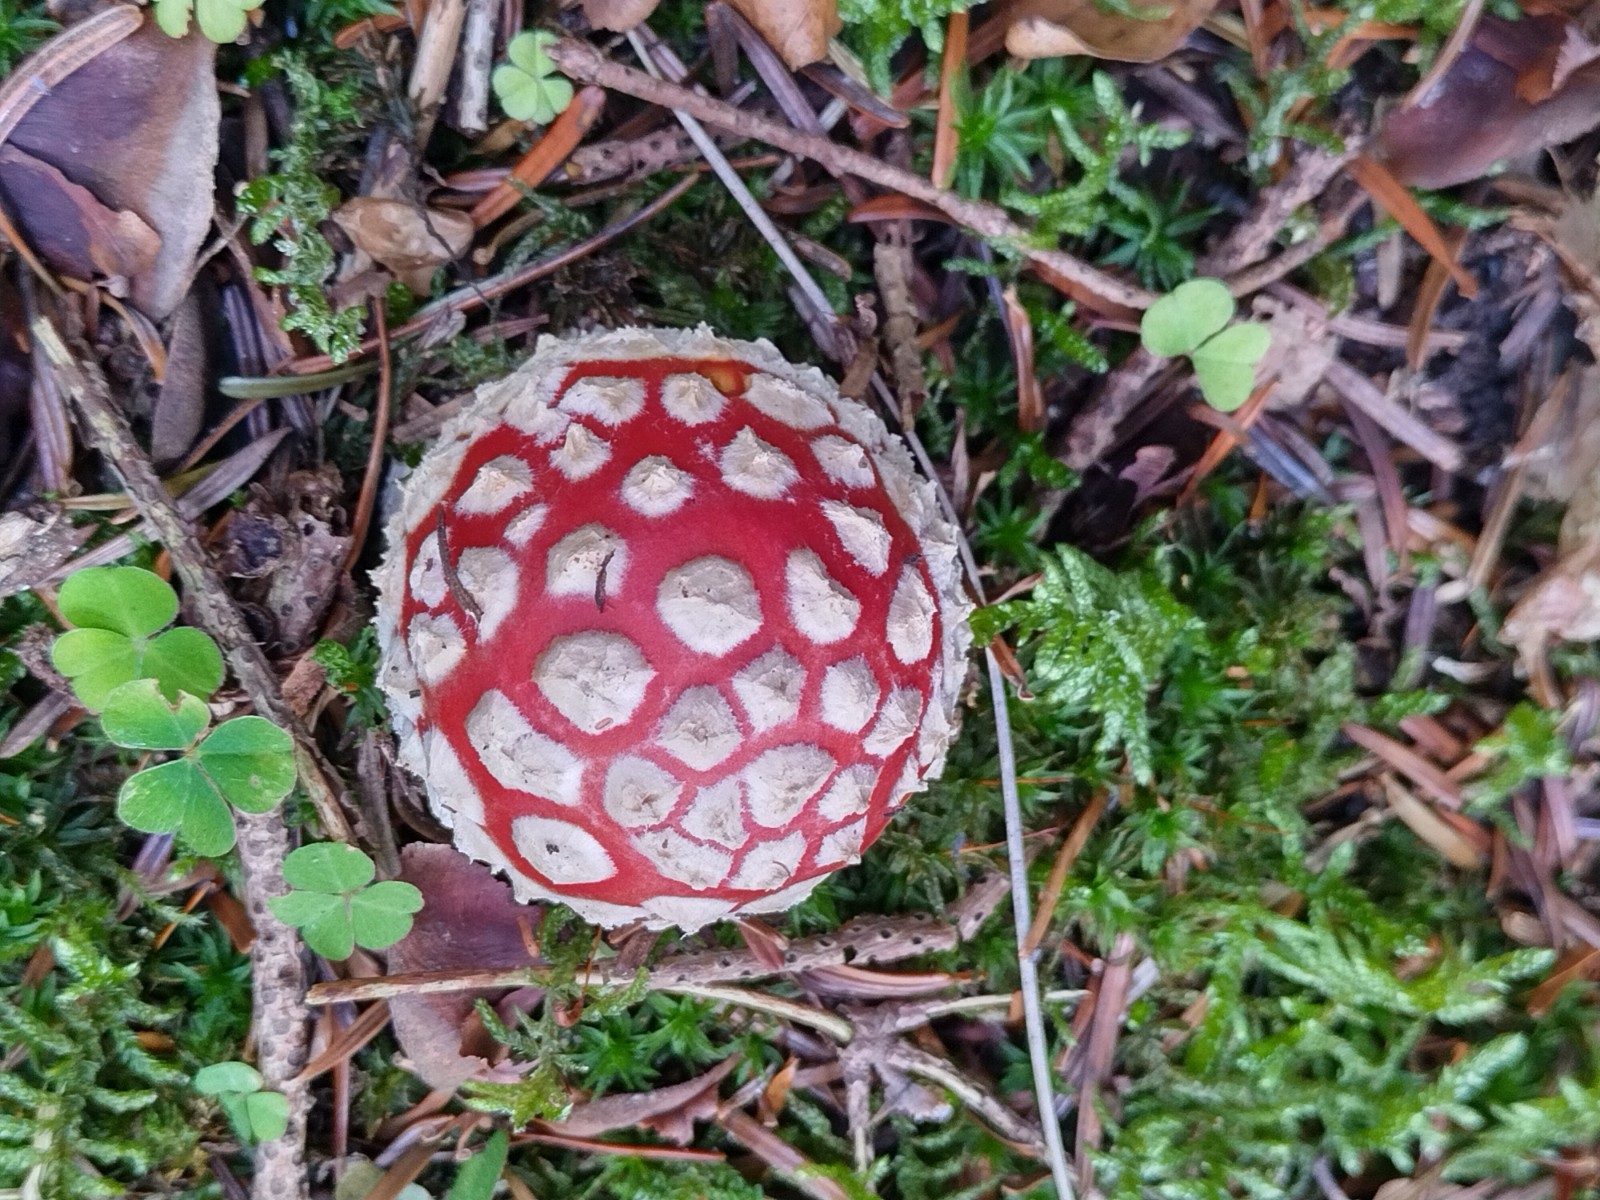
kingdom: Fungi
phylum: Basidiomycota
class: Agaricomycetes
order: Agaricales
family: Amanitaceae
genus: Amanita
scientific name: Amanita muscaria
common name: rød fluesvamp
